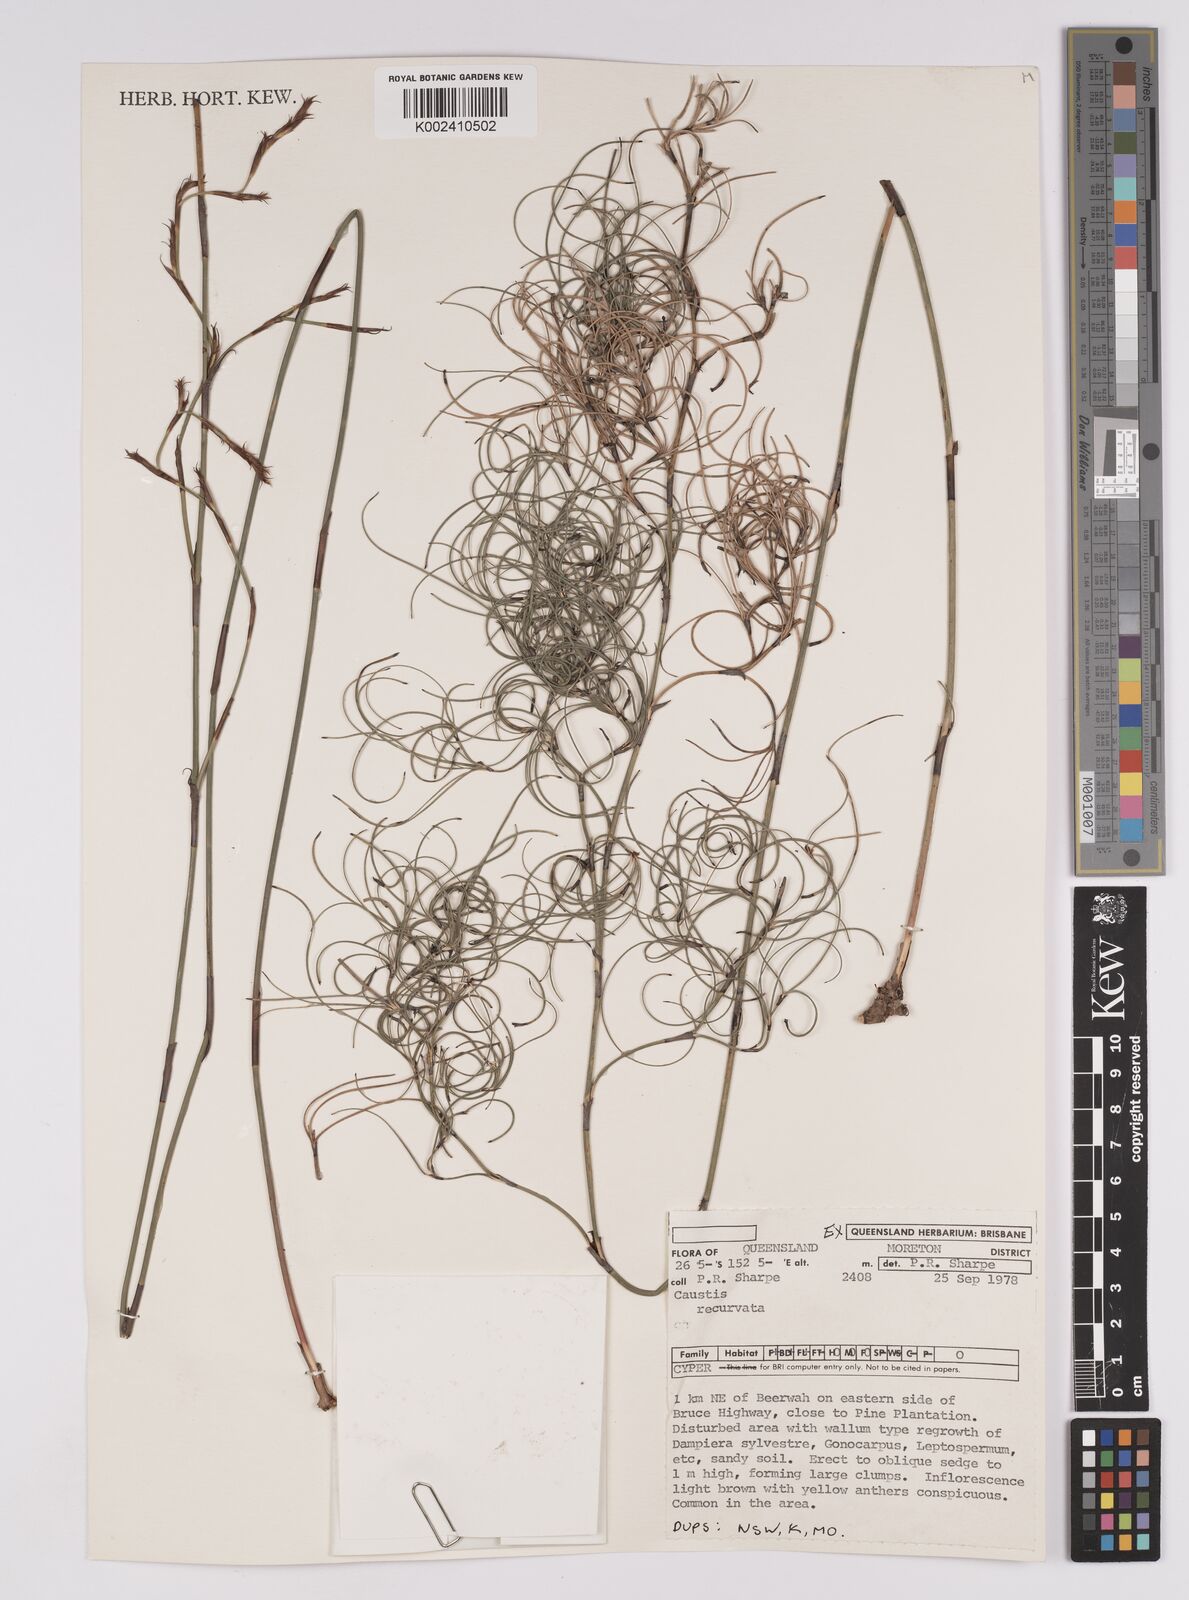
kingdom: Plantae
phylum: Tracheophyta
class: Liliopsida
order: Poales
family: Cyperaceae
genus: Caustis
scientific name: Caustis recurvata
